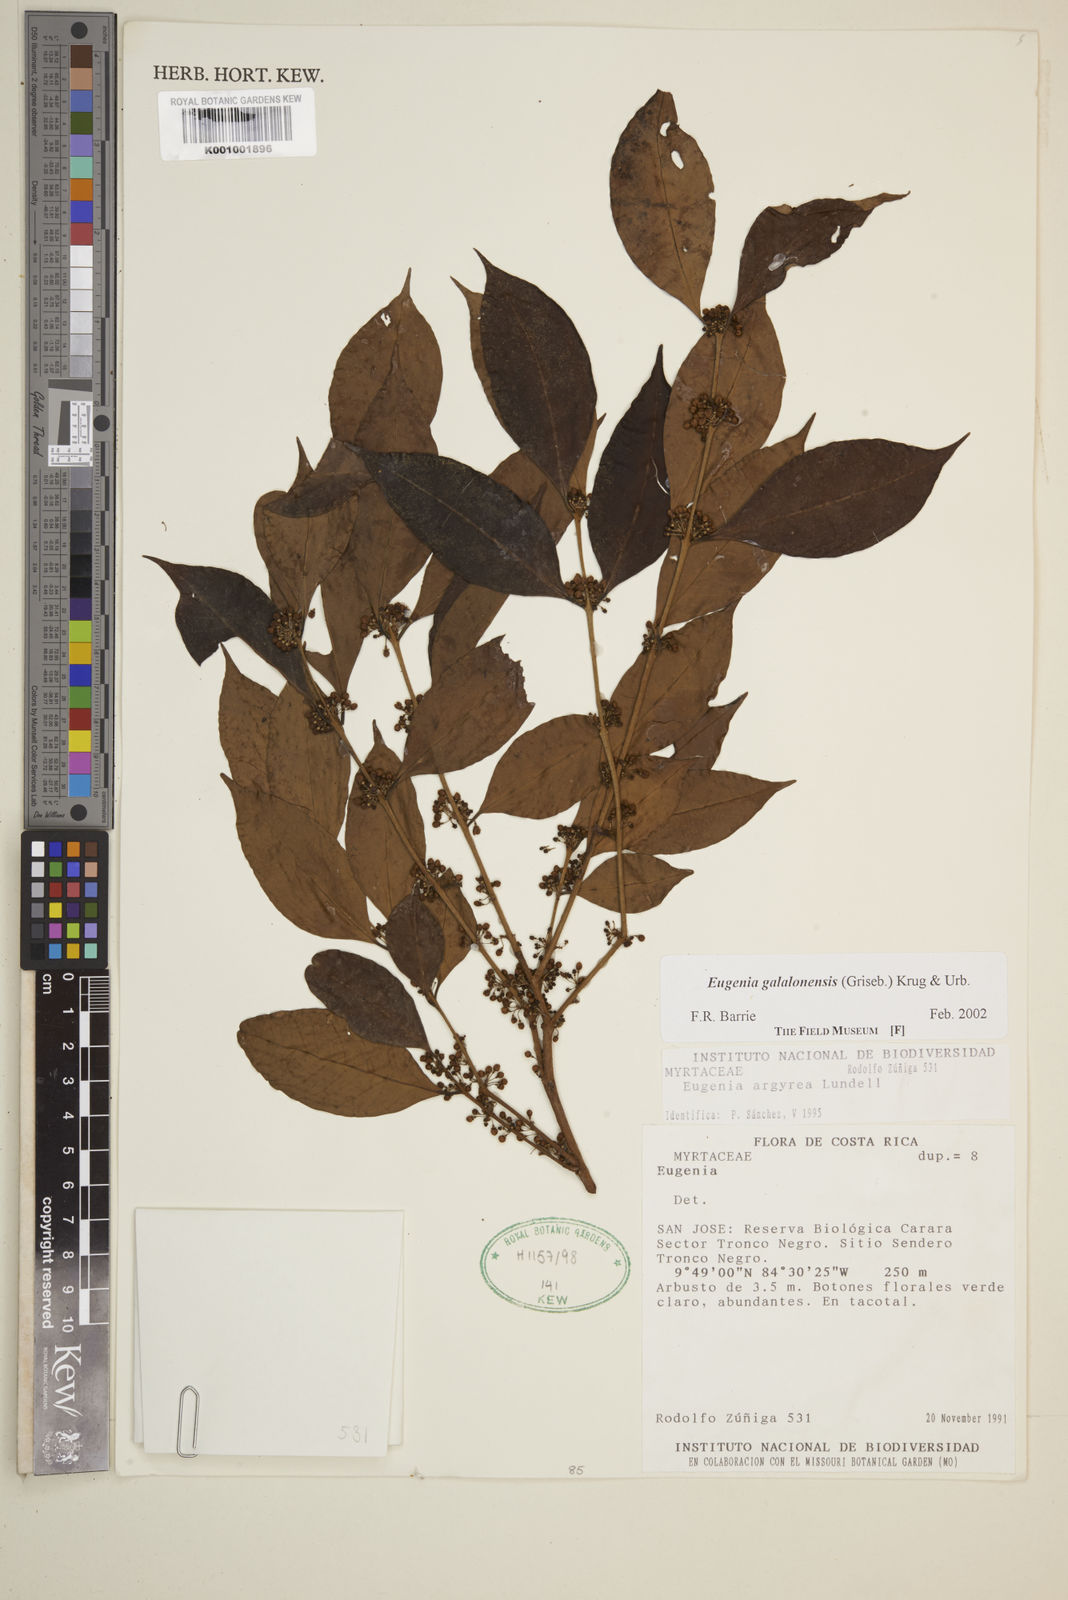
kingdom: Plantae
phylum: Tracheophyta
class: Magnoliopsida
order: Myrtales
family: Myrtaceae
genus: Eugenia
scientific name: Eugenia galalonensis
